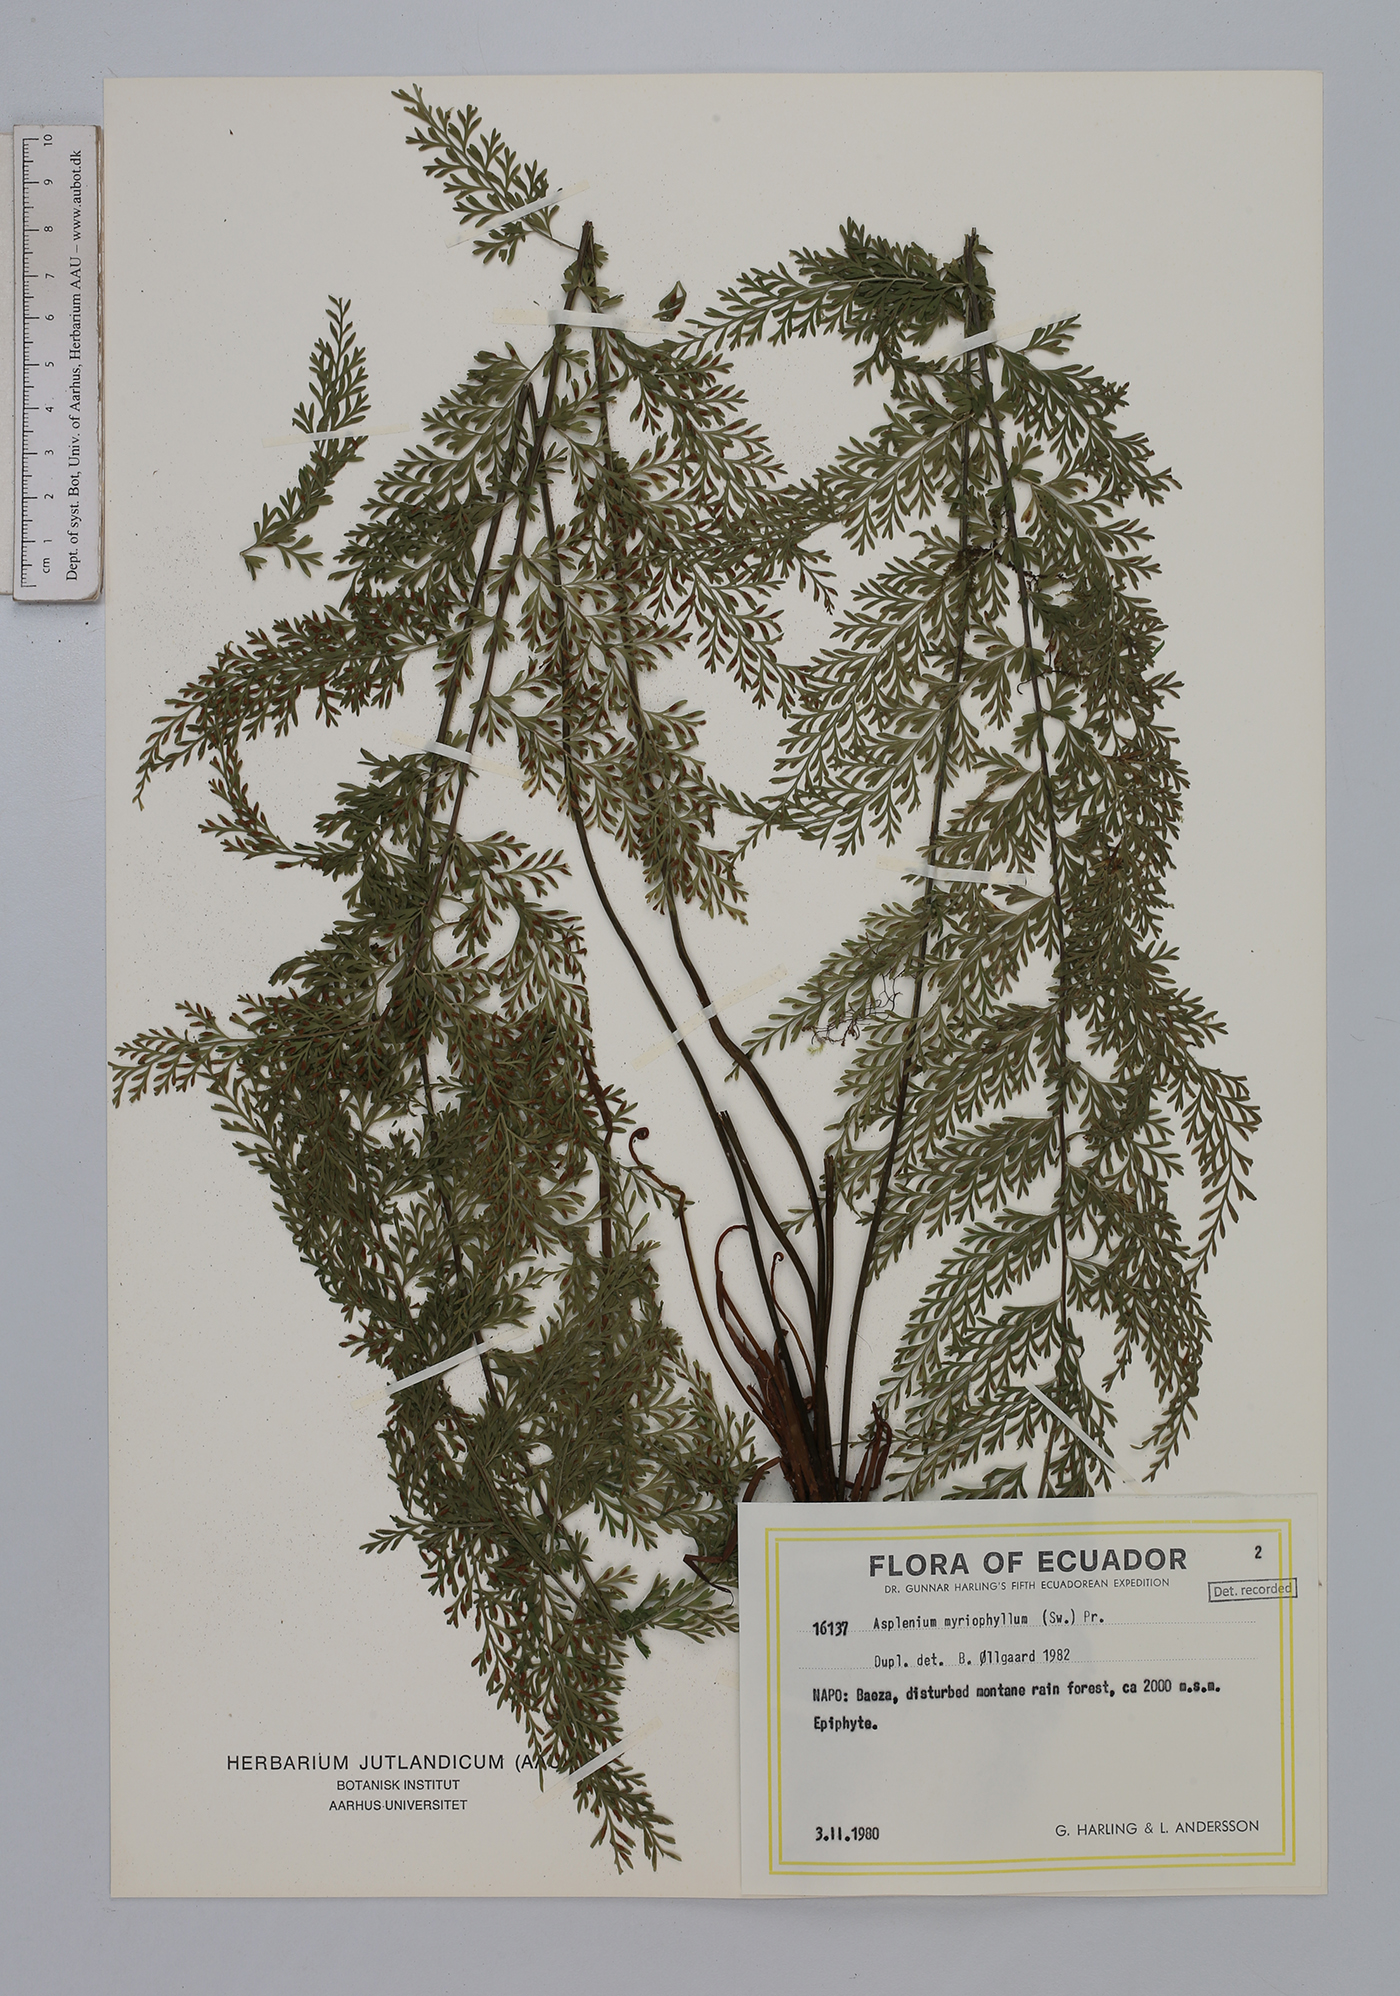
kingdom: Plantae
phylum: Tracheophyta
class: Polypodiopsida
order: Polypodiales
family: Aspleniaceae
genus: Asplenium
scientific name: Asplenium myriophyllum
